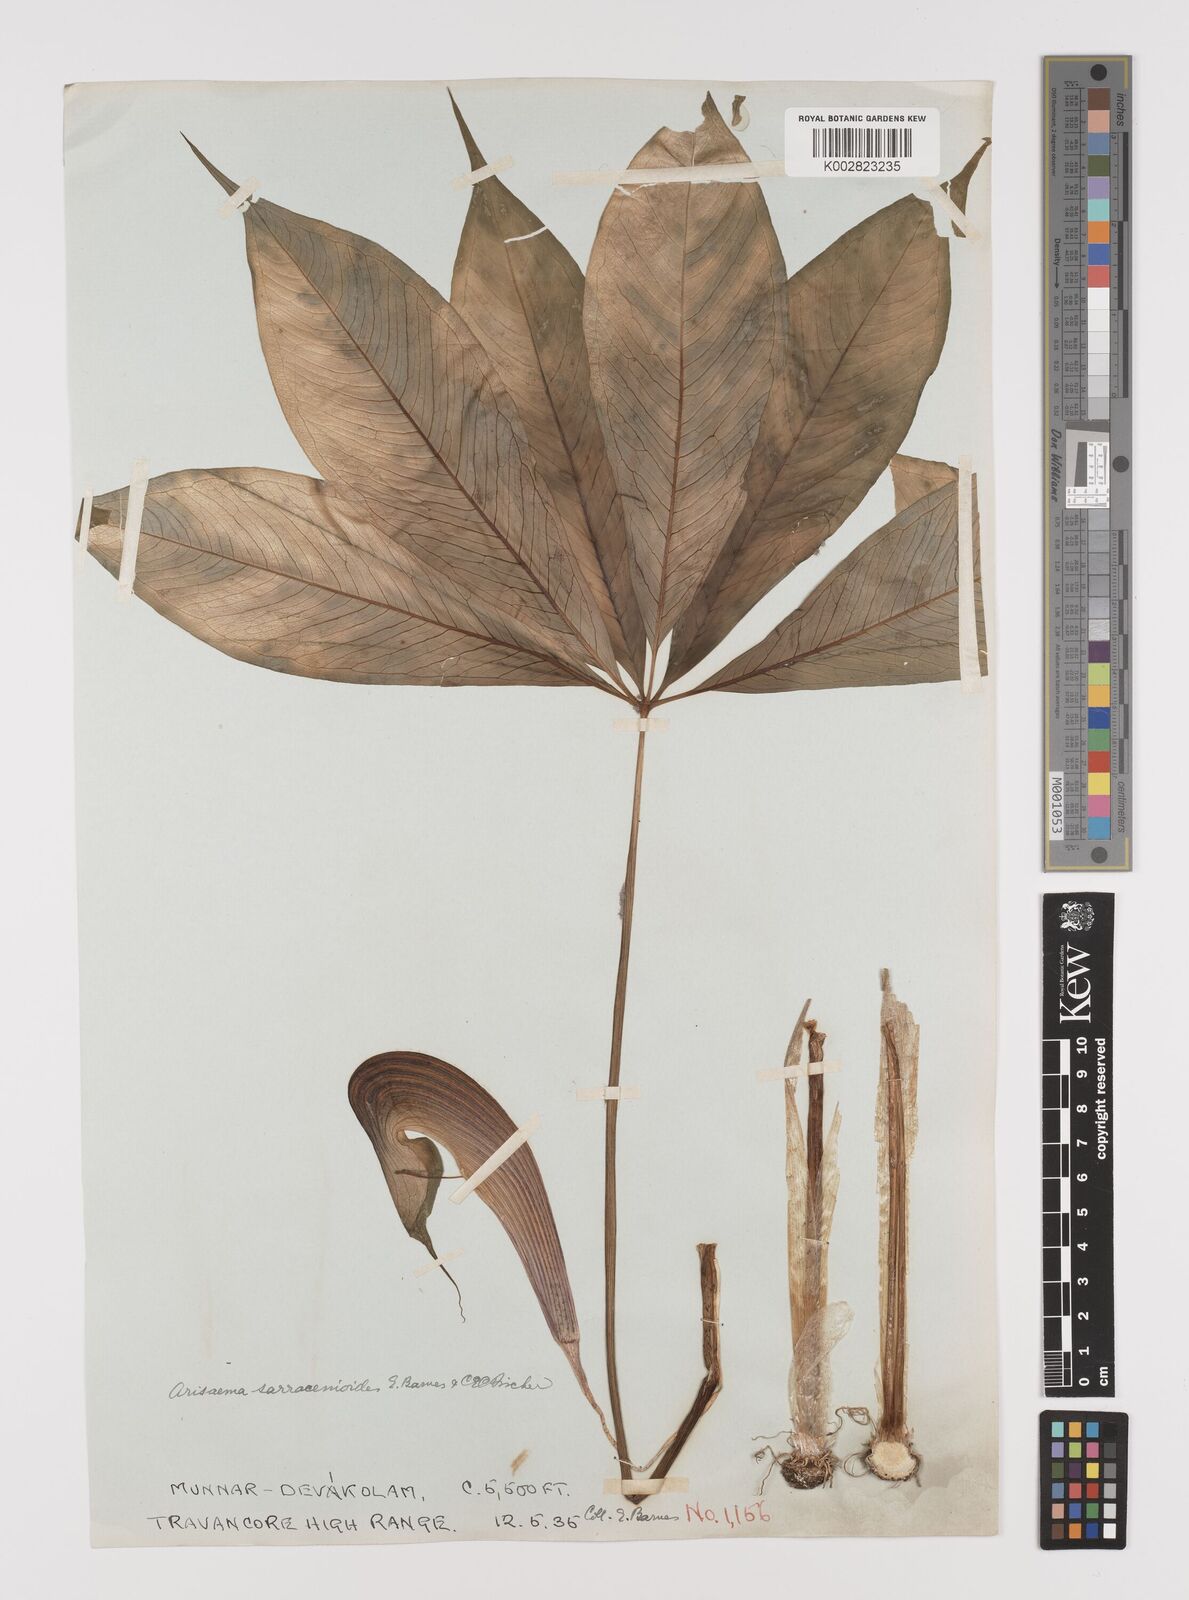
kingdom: Plantae
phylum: Tracheophyta
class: Liliopsida
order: Alismatales
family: Araceae
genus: Arisaema
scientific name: Arisaema sarracenioides
